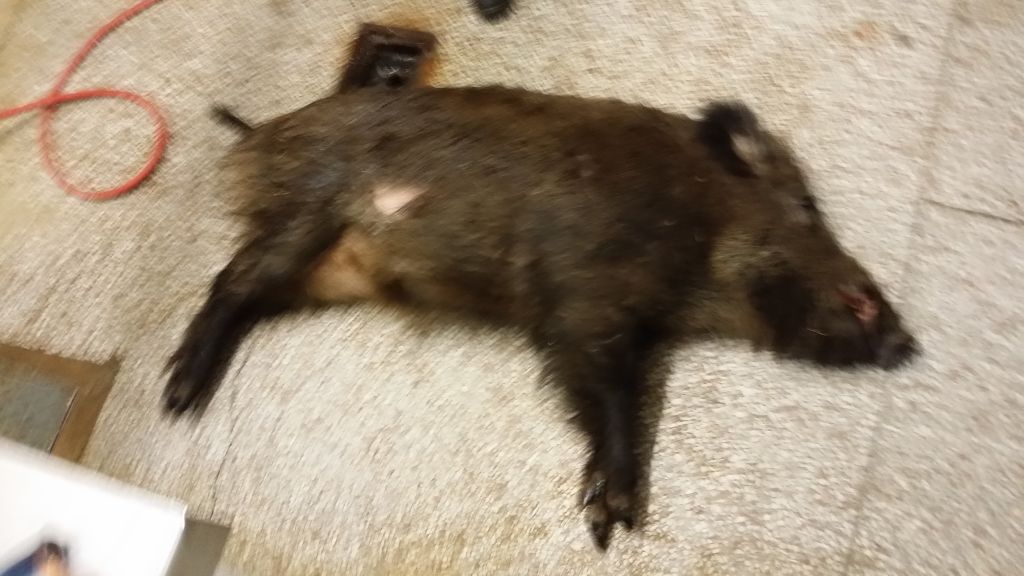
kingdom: Animalia
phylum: Chordata
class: Mammalia
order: Artiodactyla
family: Suidae
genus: Sus
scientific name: Sus scrofa
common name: Wild boar
